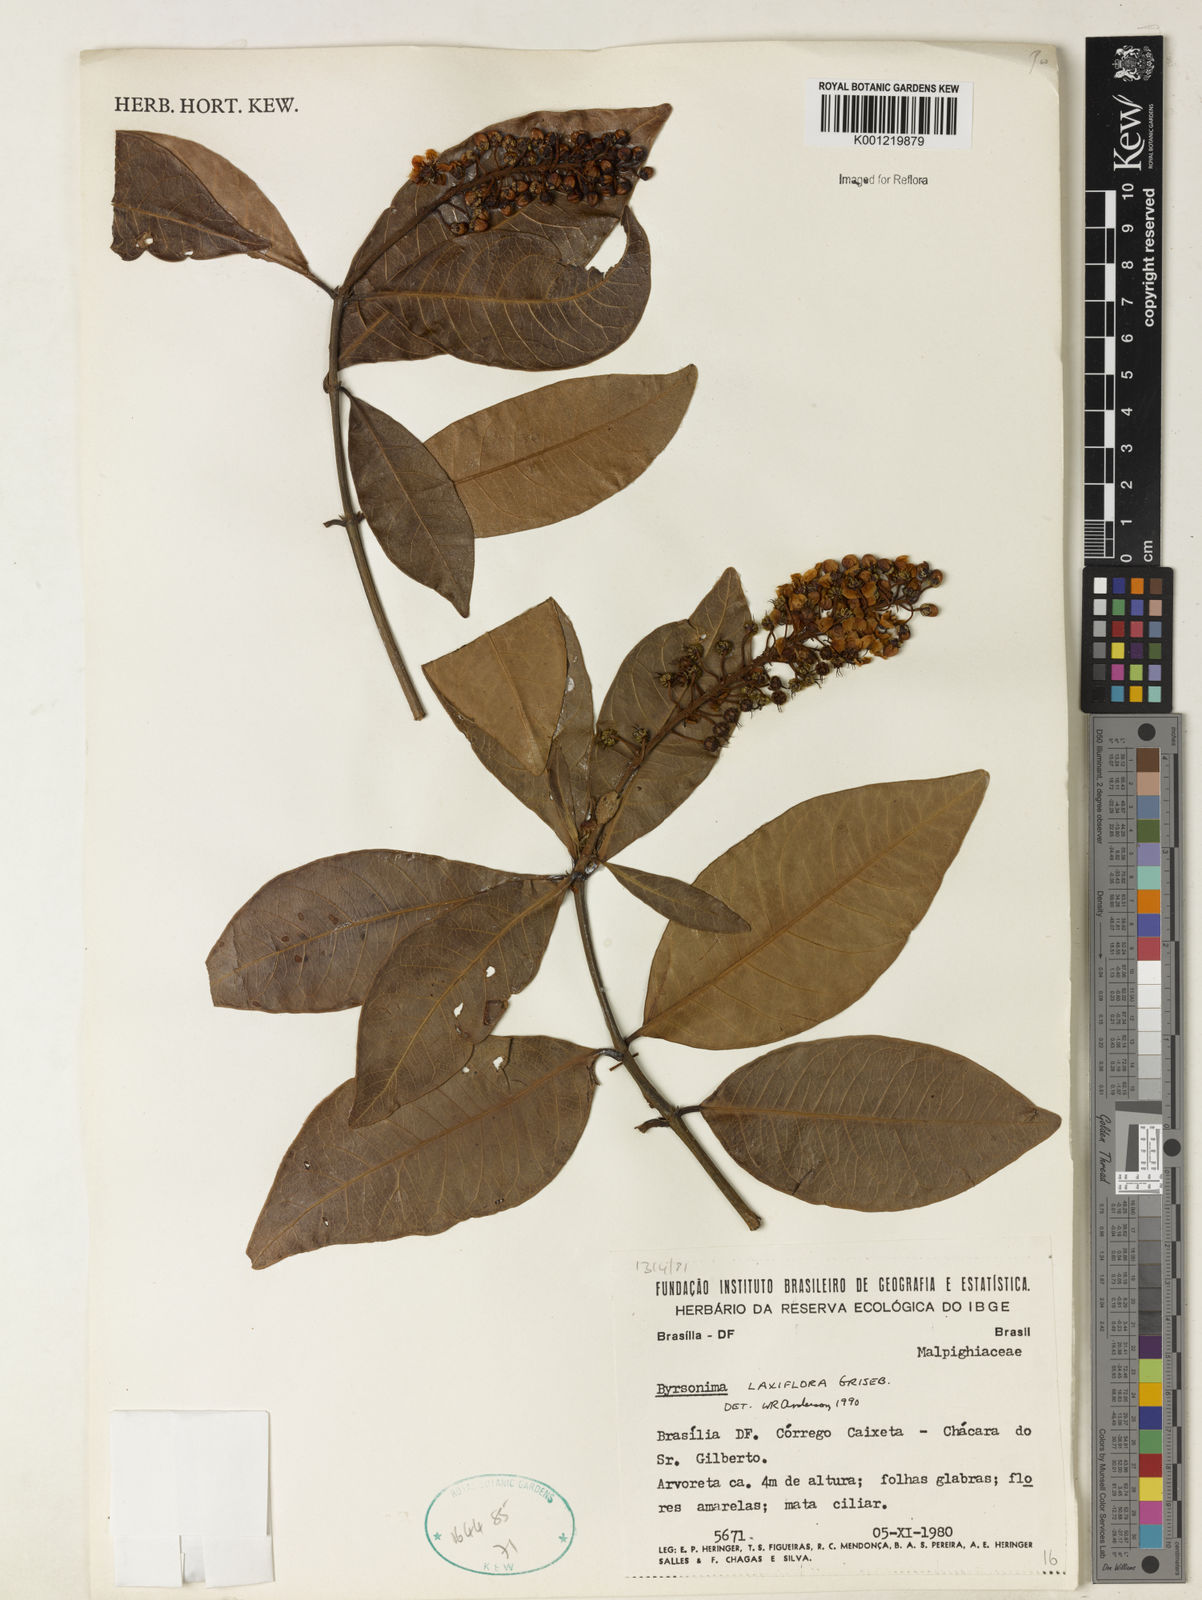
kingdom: Plantae
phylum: Tracheophyta
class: Magnoliopsida
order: Malpighiales
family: Malpighiaceae
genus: Byrsonima
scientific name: Byrsonima laxiflora
